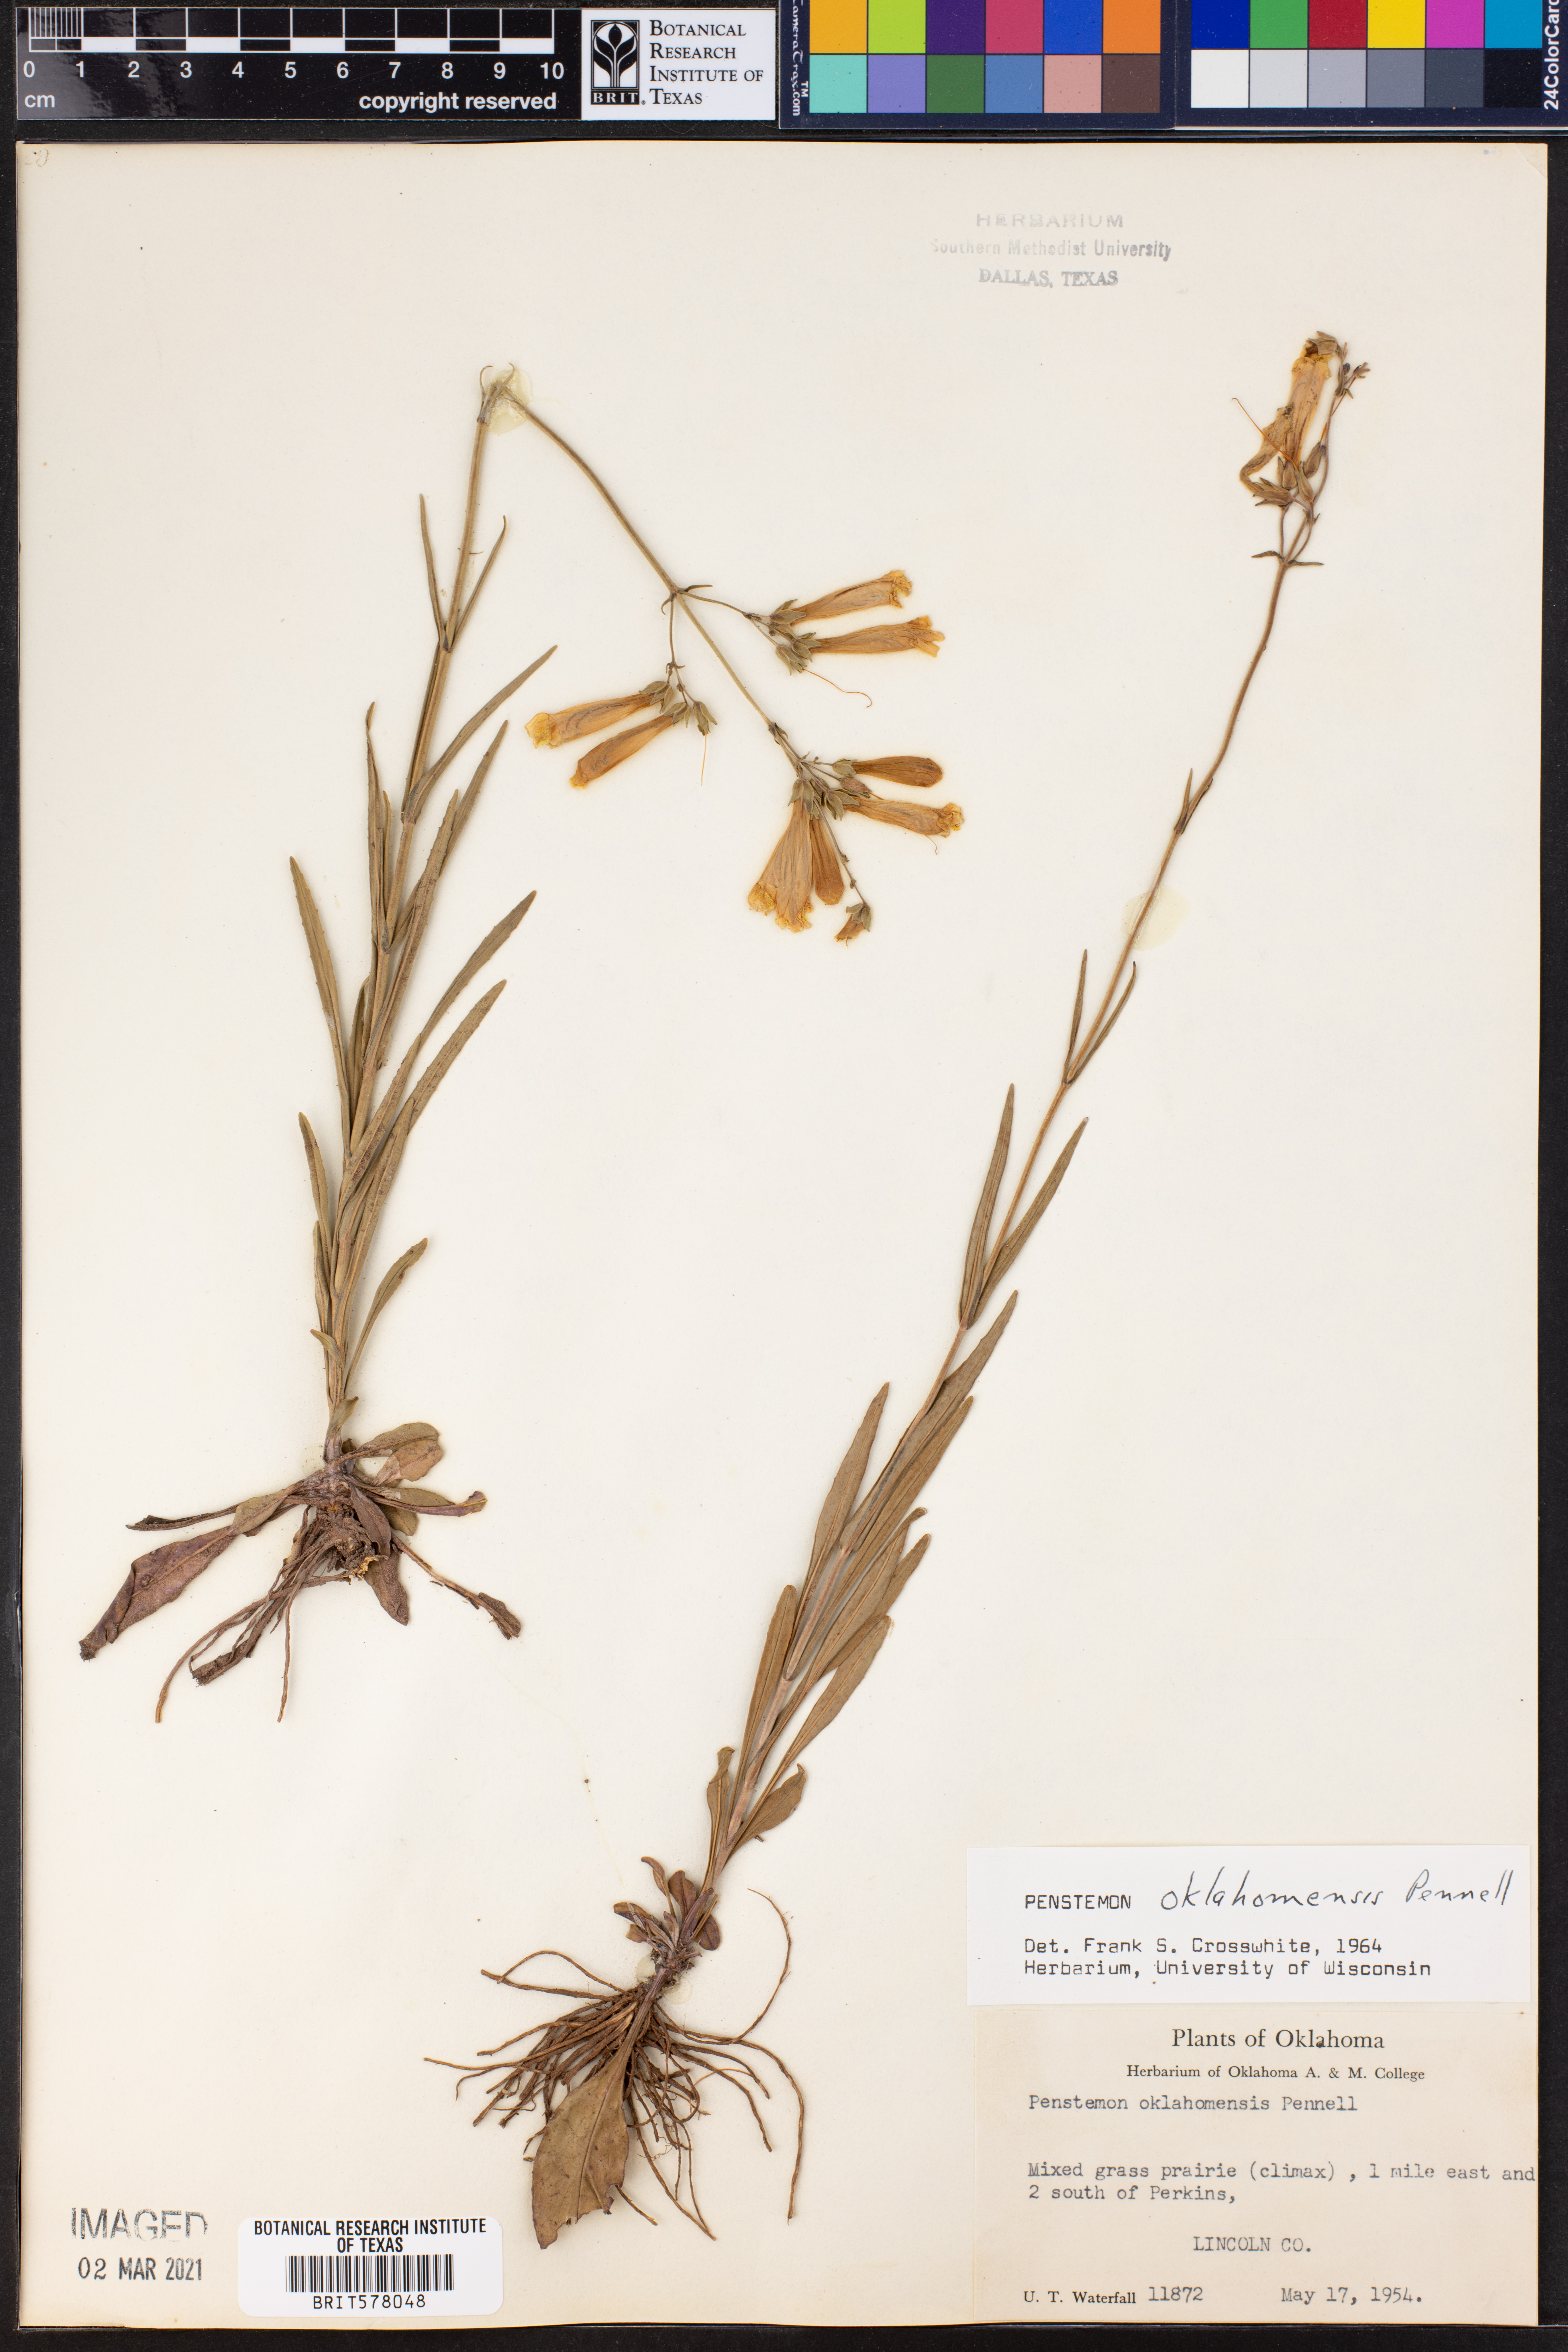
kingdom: Plantae
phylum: Tracheophyta
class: Magnoliopsida
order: Lamiales
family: Plantaginaceae
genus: Penstemon
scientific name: Penstemon oklahomensis
